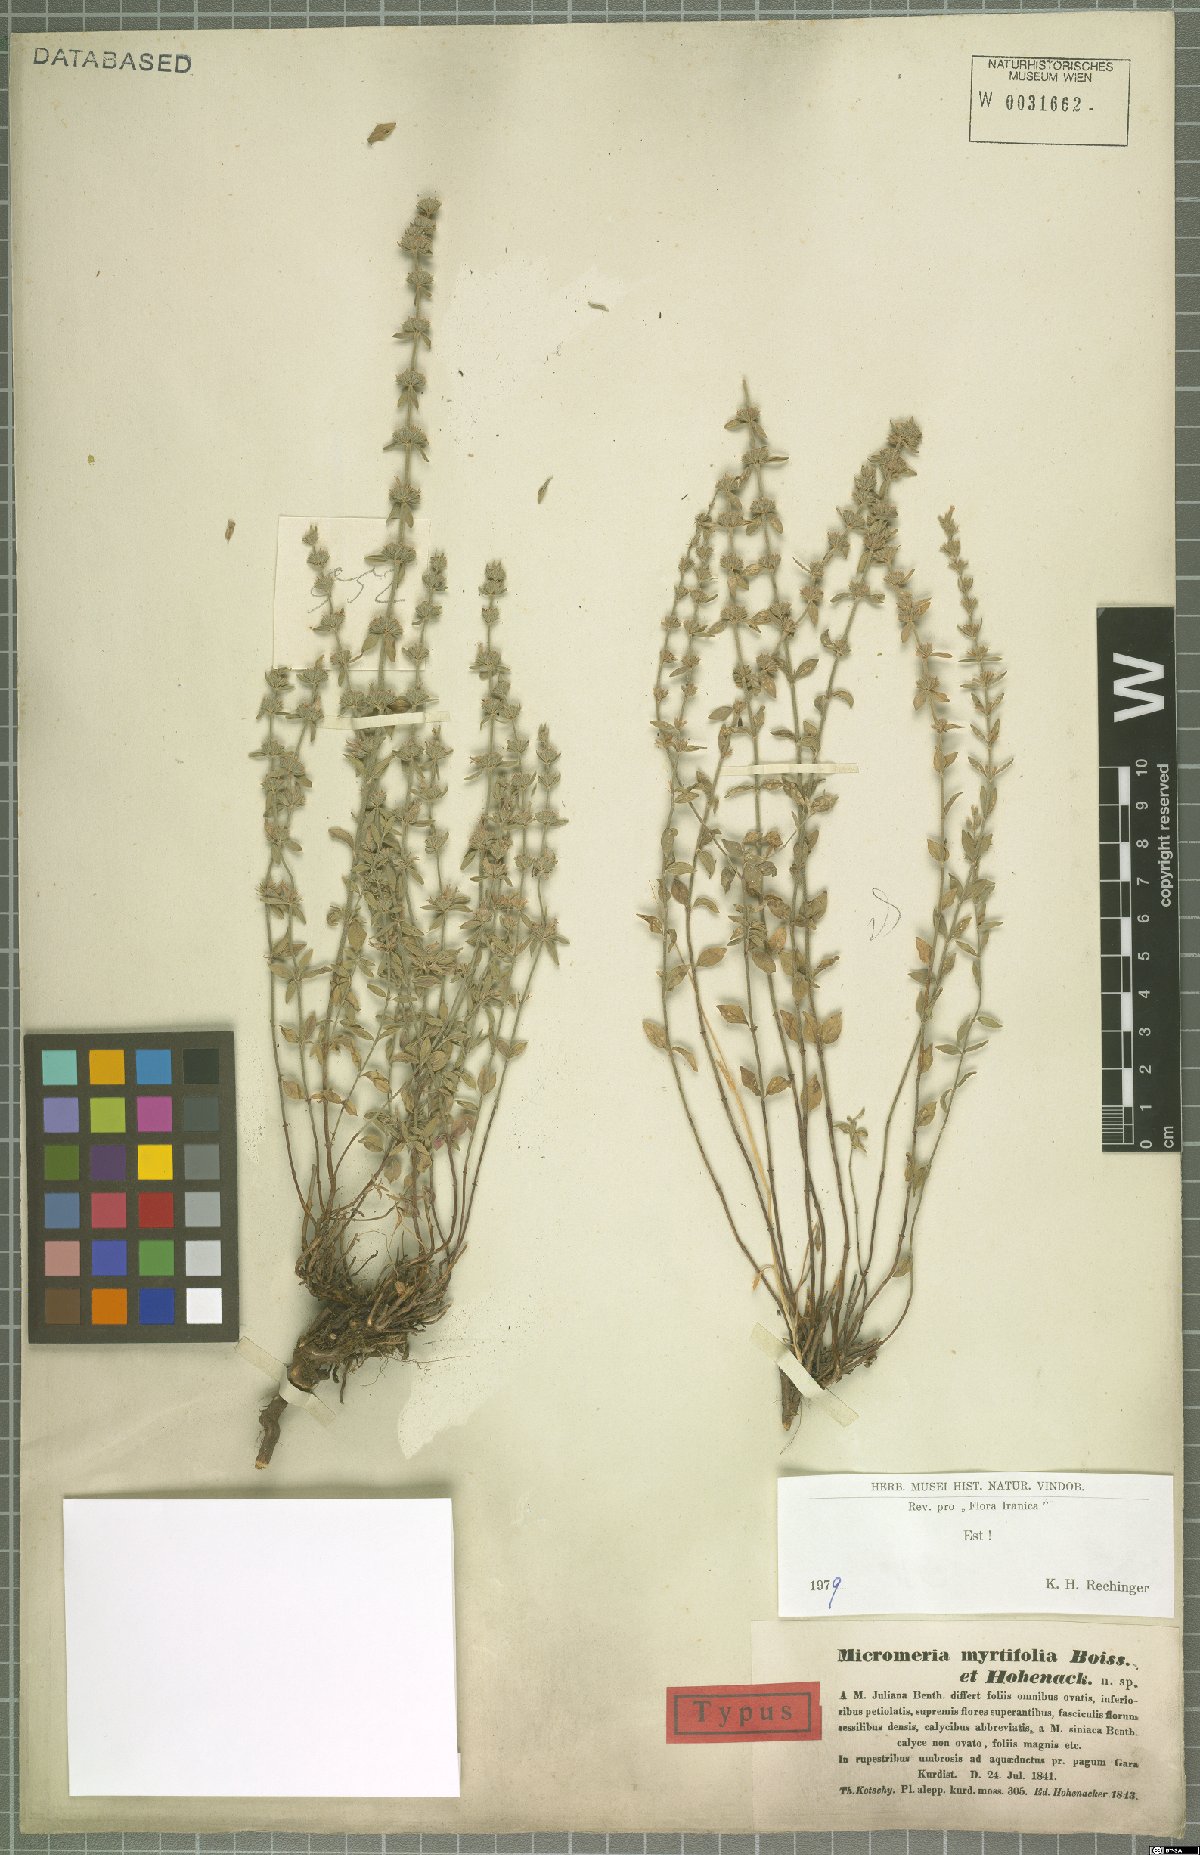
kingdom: Plantae
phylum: Tracheophyta
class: Magnoliopsida
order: Lamiales
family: Lamiaceae
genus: Micromeria
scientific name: Micromeria myrtifolia
